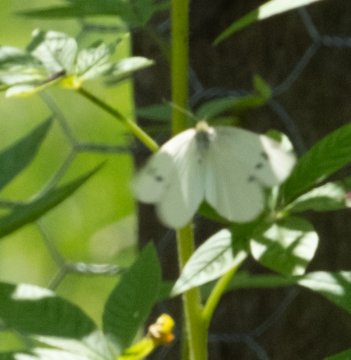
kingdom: Animalia
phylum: Arthropoda
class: Insecta
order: Lepidoptera
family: Pieridae
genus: Pieris
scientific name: Pieris rapae
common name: Cabbage White
